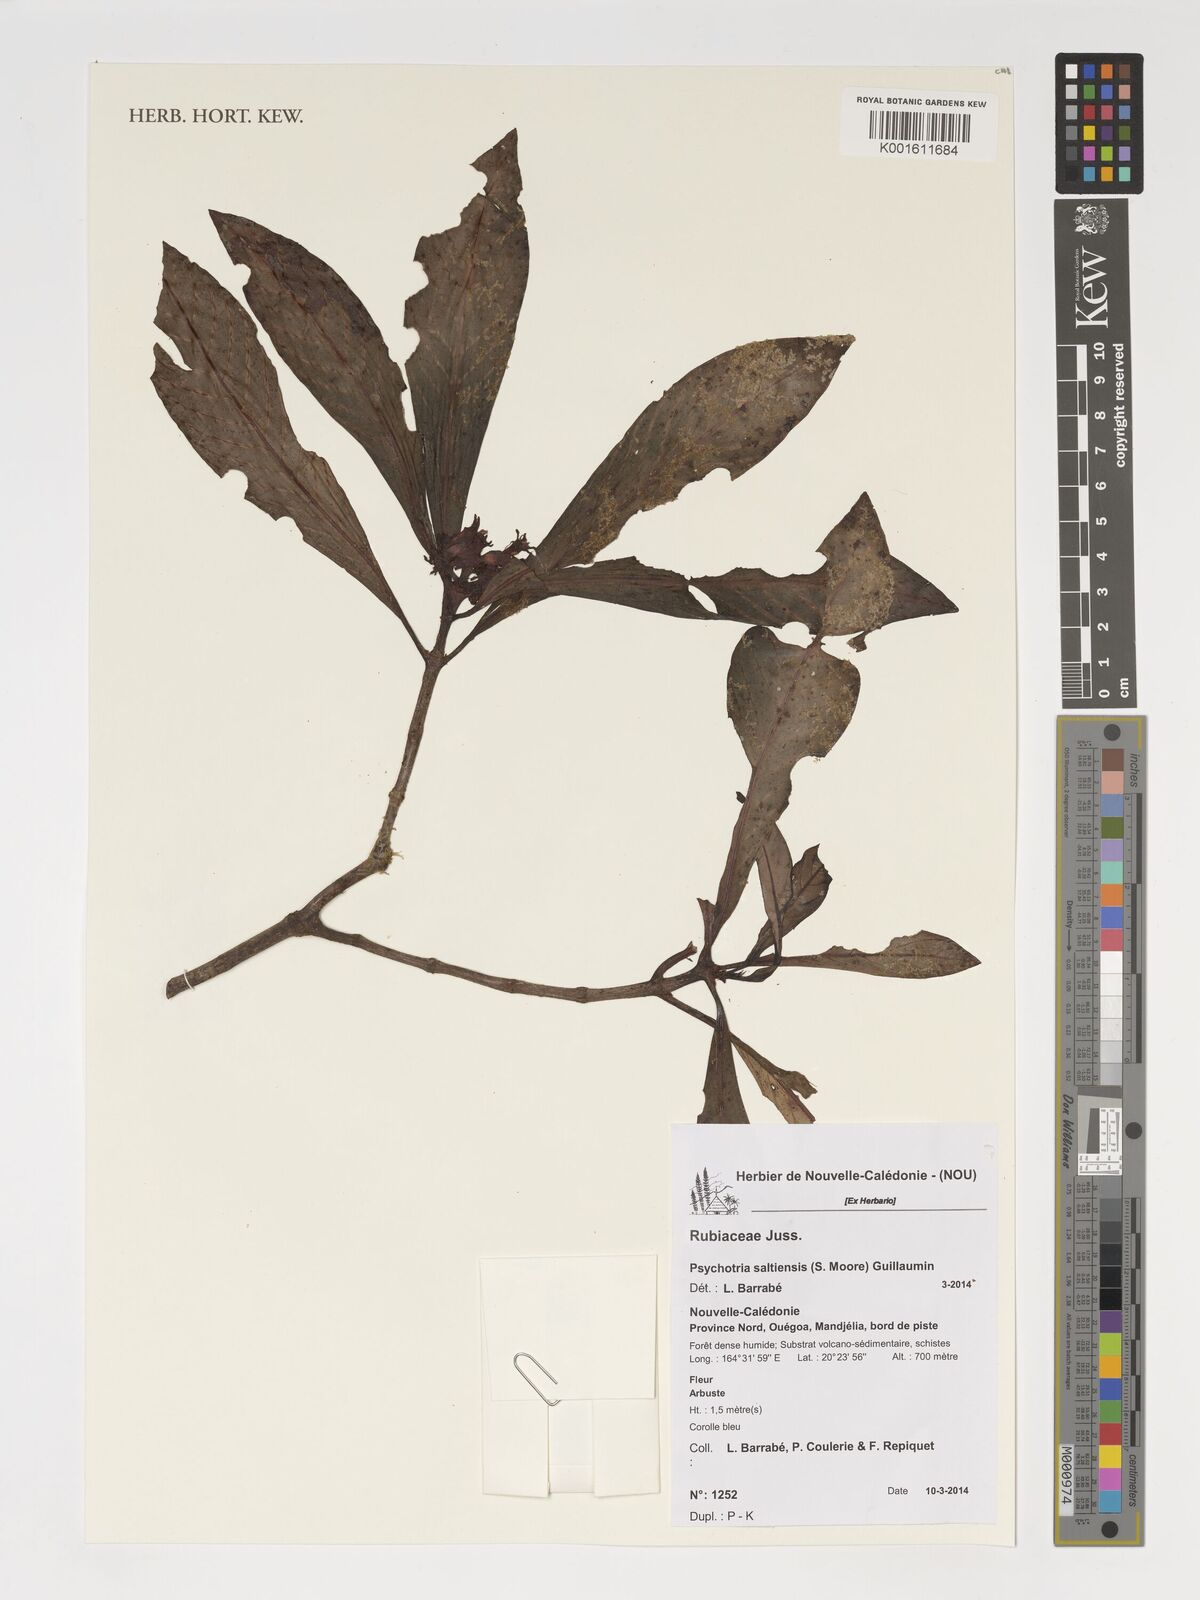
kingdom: Plantae
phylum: Tracheophyta
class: Magnoliopsida
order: Gentianales
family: Rubiaceae
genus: Psychotria
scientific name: Psychotria saltiensis
